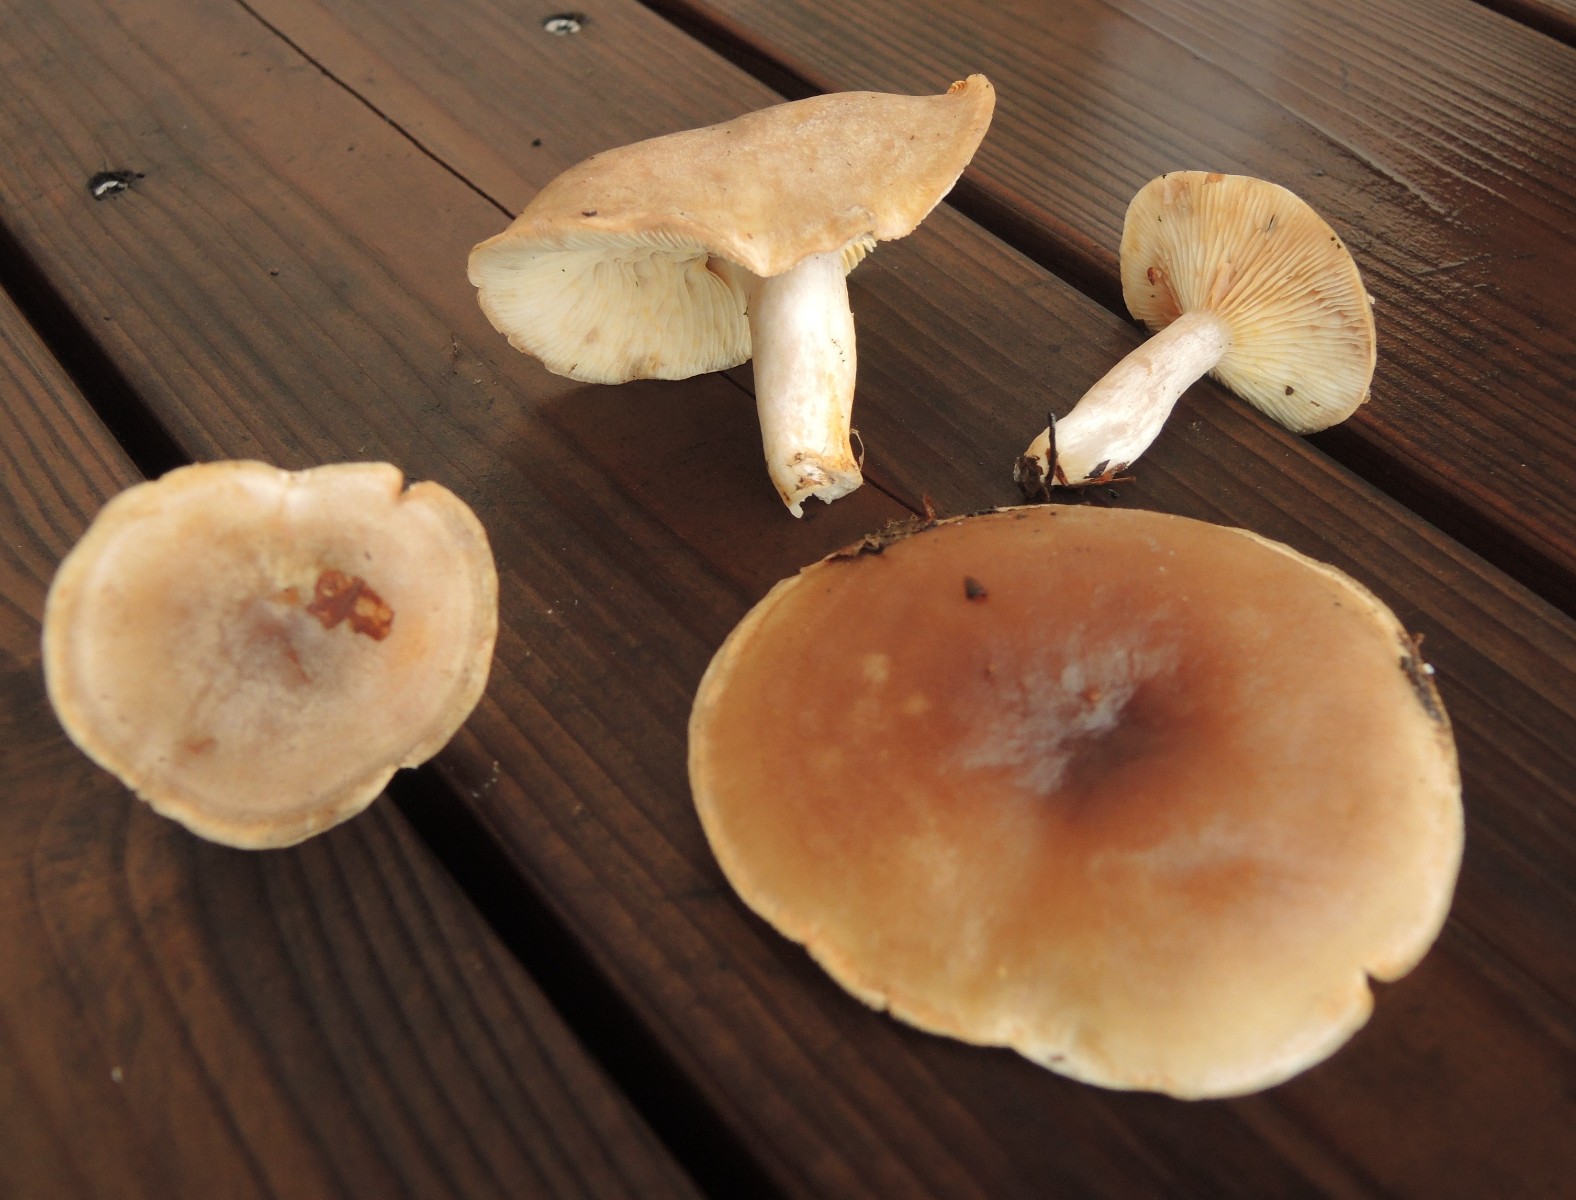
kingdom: Fungi
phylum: Basidiomycota
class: Agaricomycetes
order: Russulales
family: Russulaceae
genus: Lactarius
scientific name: Lactarius fluens
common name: lysrandet mælkehat
